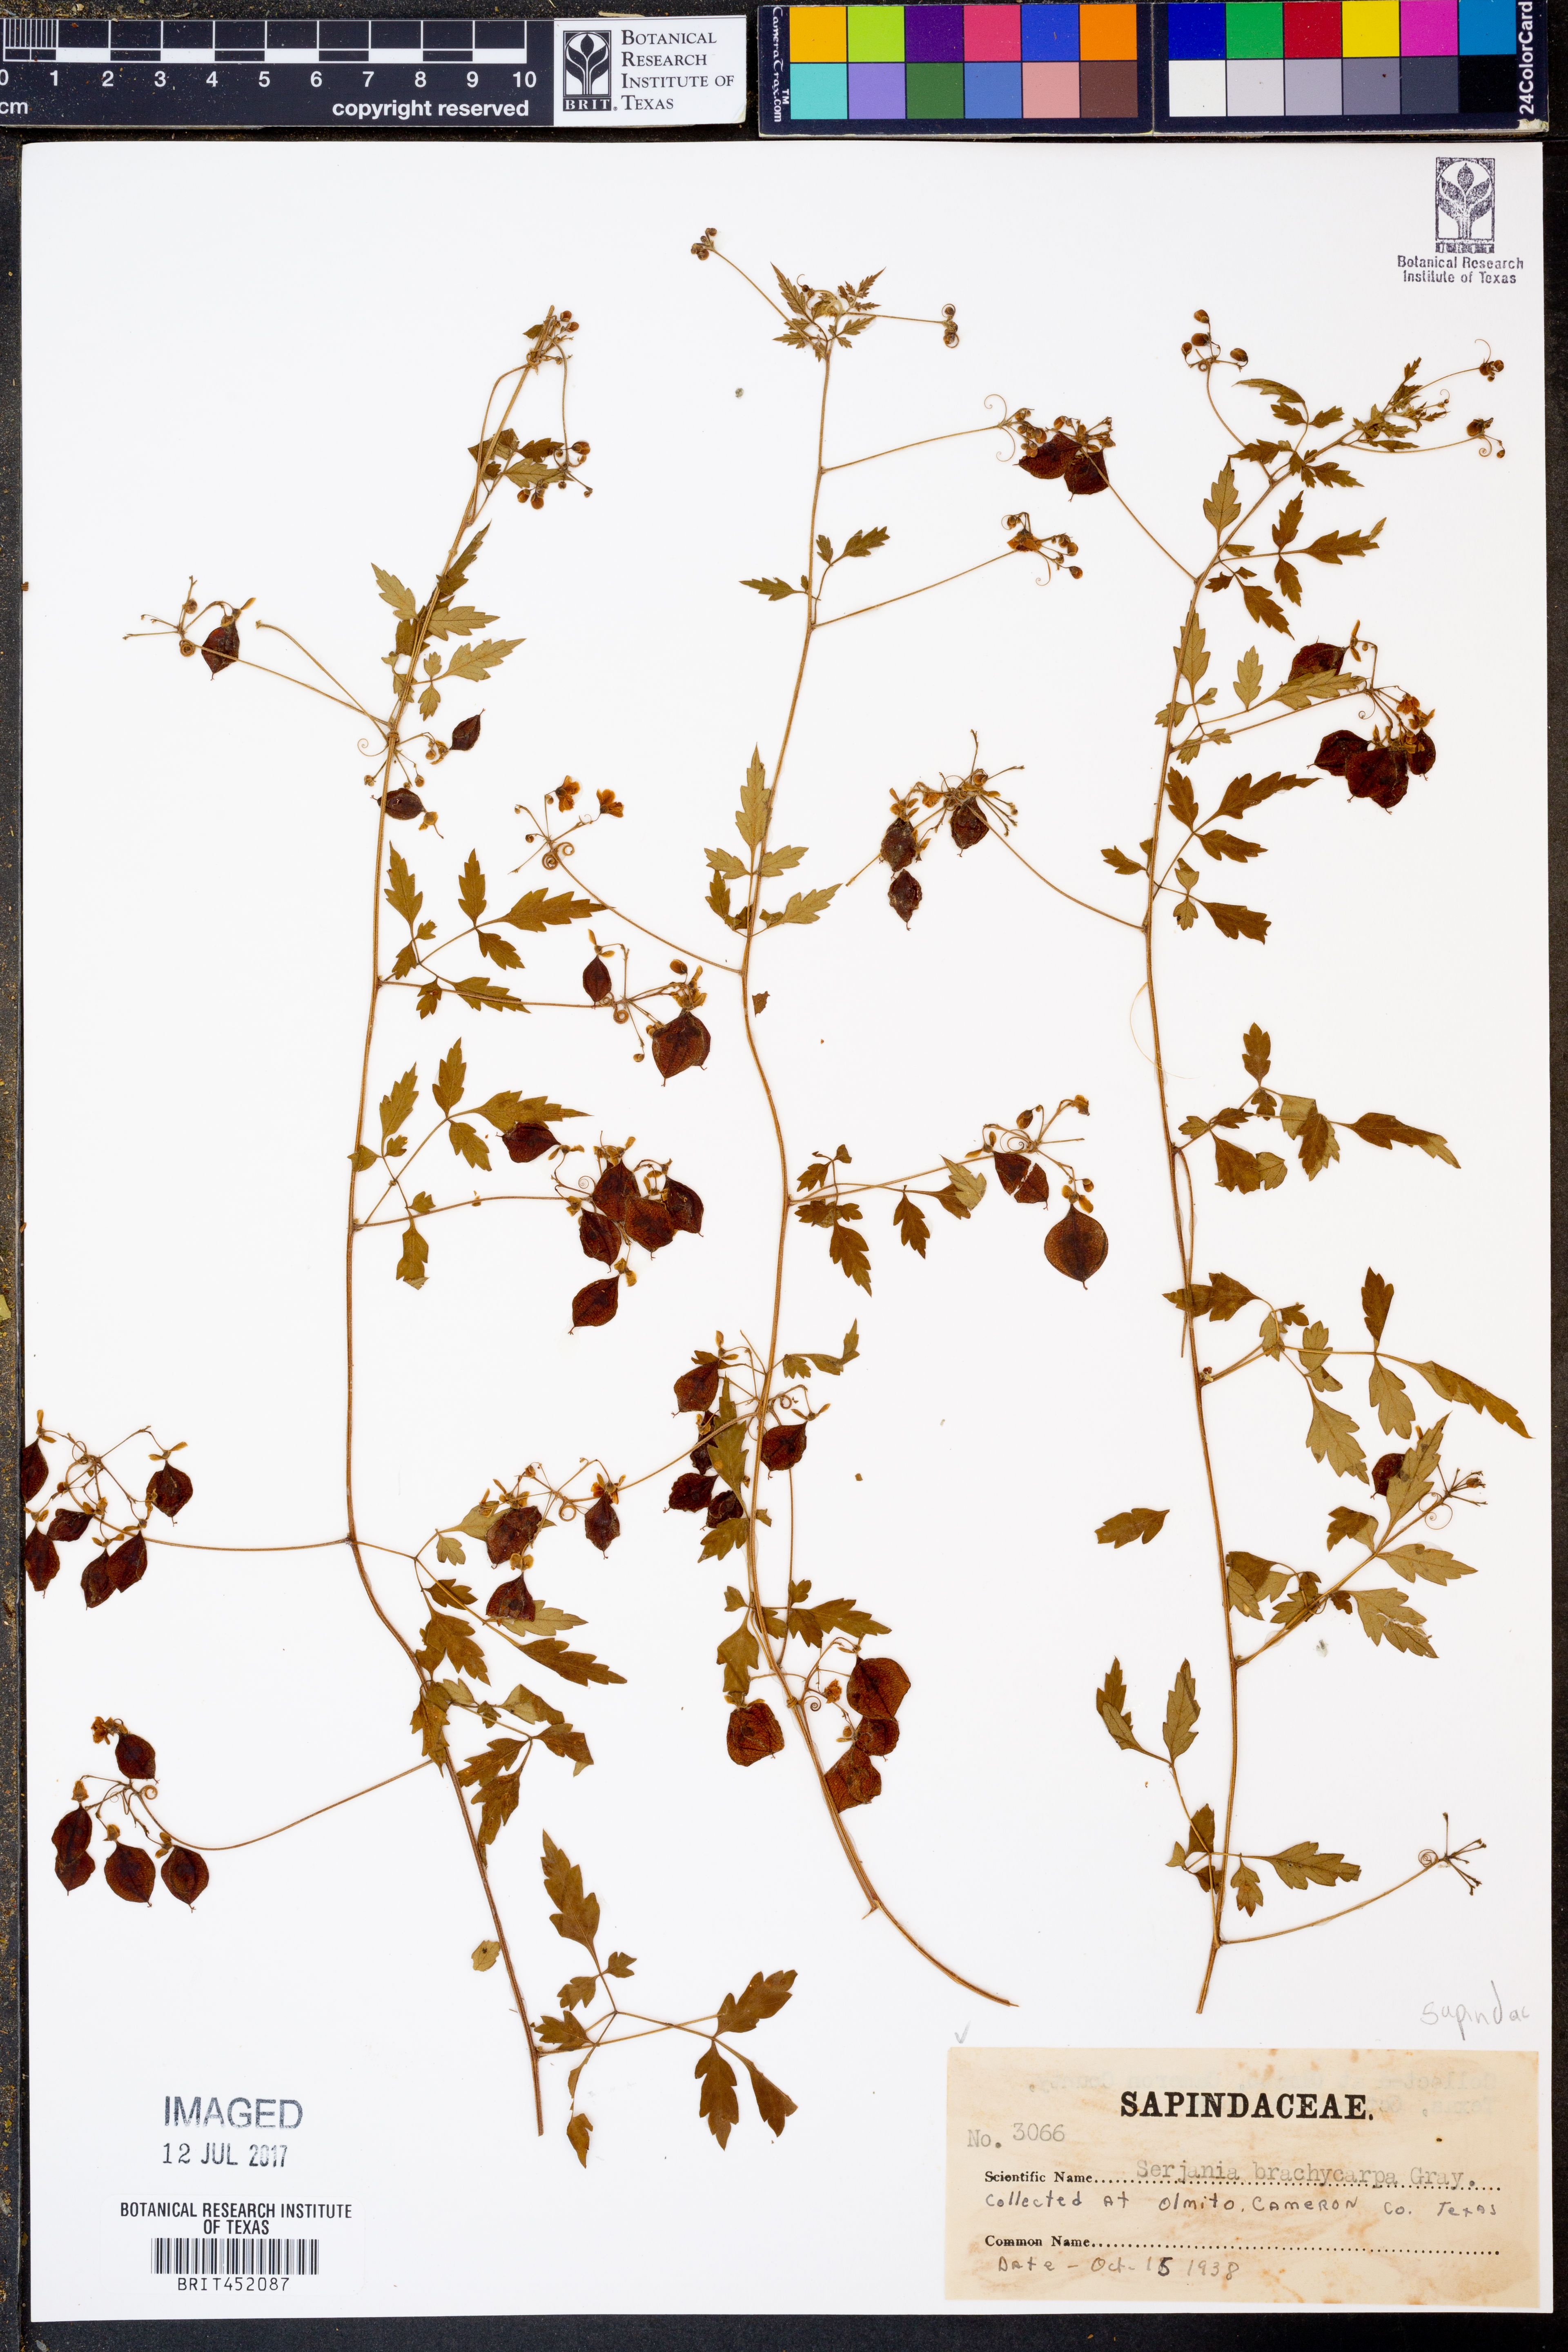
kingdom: Plantae
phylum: Tracheophyta
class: Magnoliopsida
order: Sapindales
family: Sapindaceae
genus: Serjania
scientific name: Serjania brachycarpa
